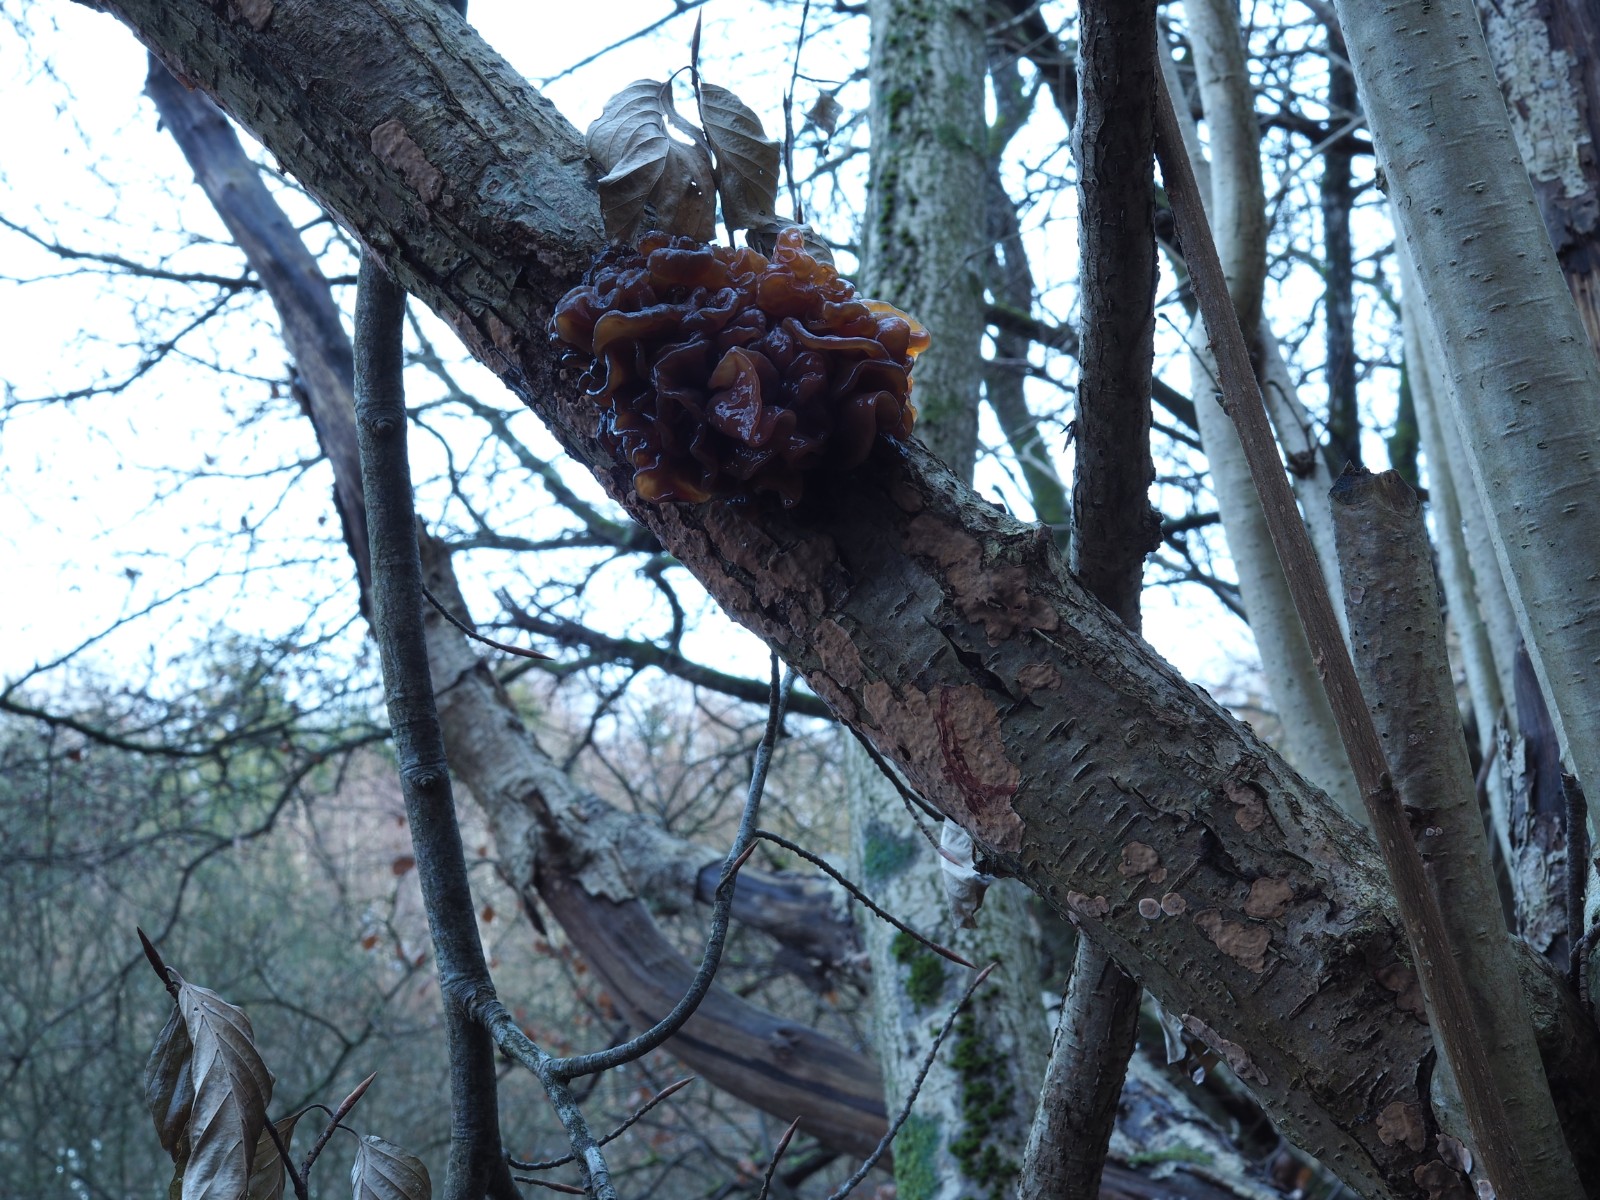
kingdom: Fungi
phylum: Basidiomycota
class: Agaricomycetes
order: Russulales
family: Stereaceae
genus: Stereum
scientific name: Stereum rugosum
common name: rynket lædersvamp
